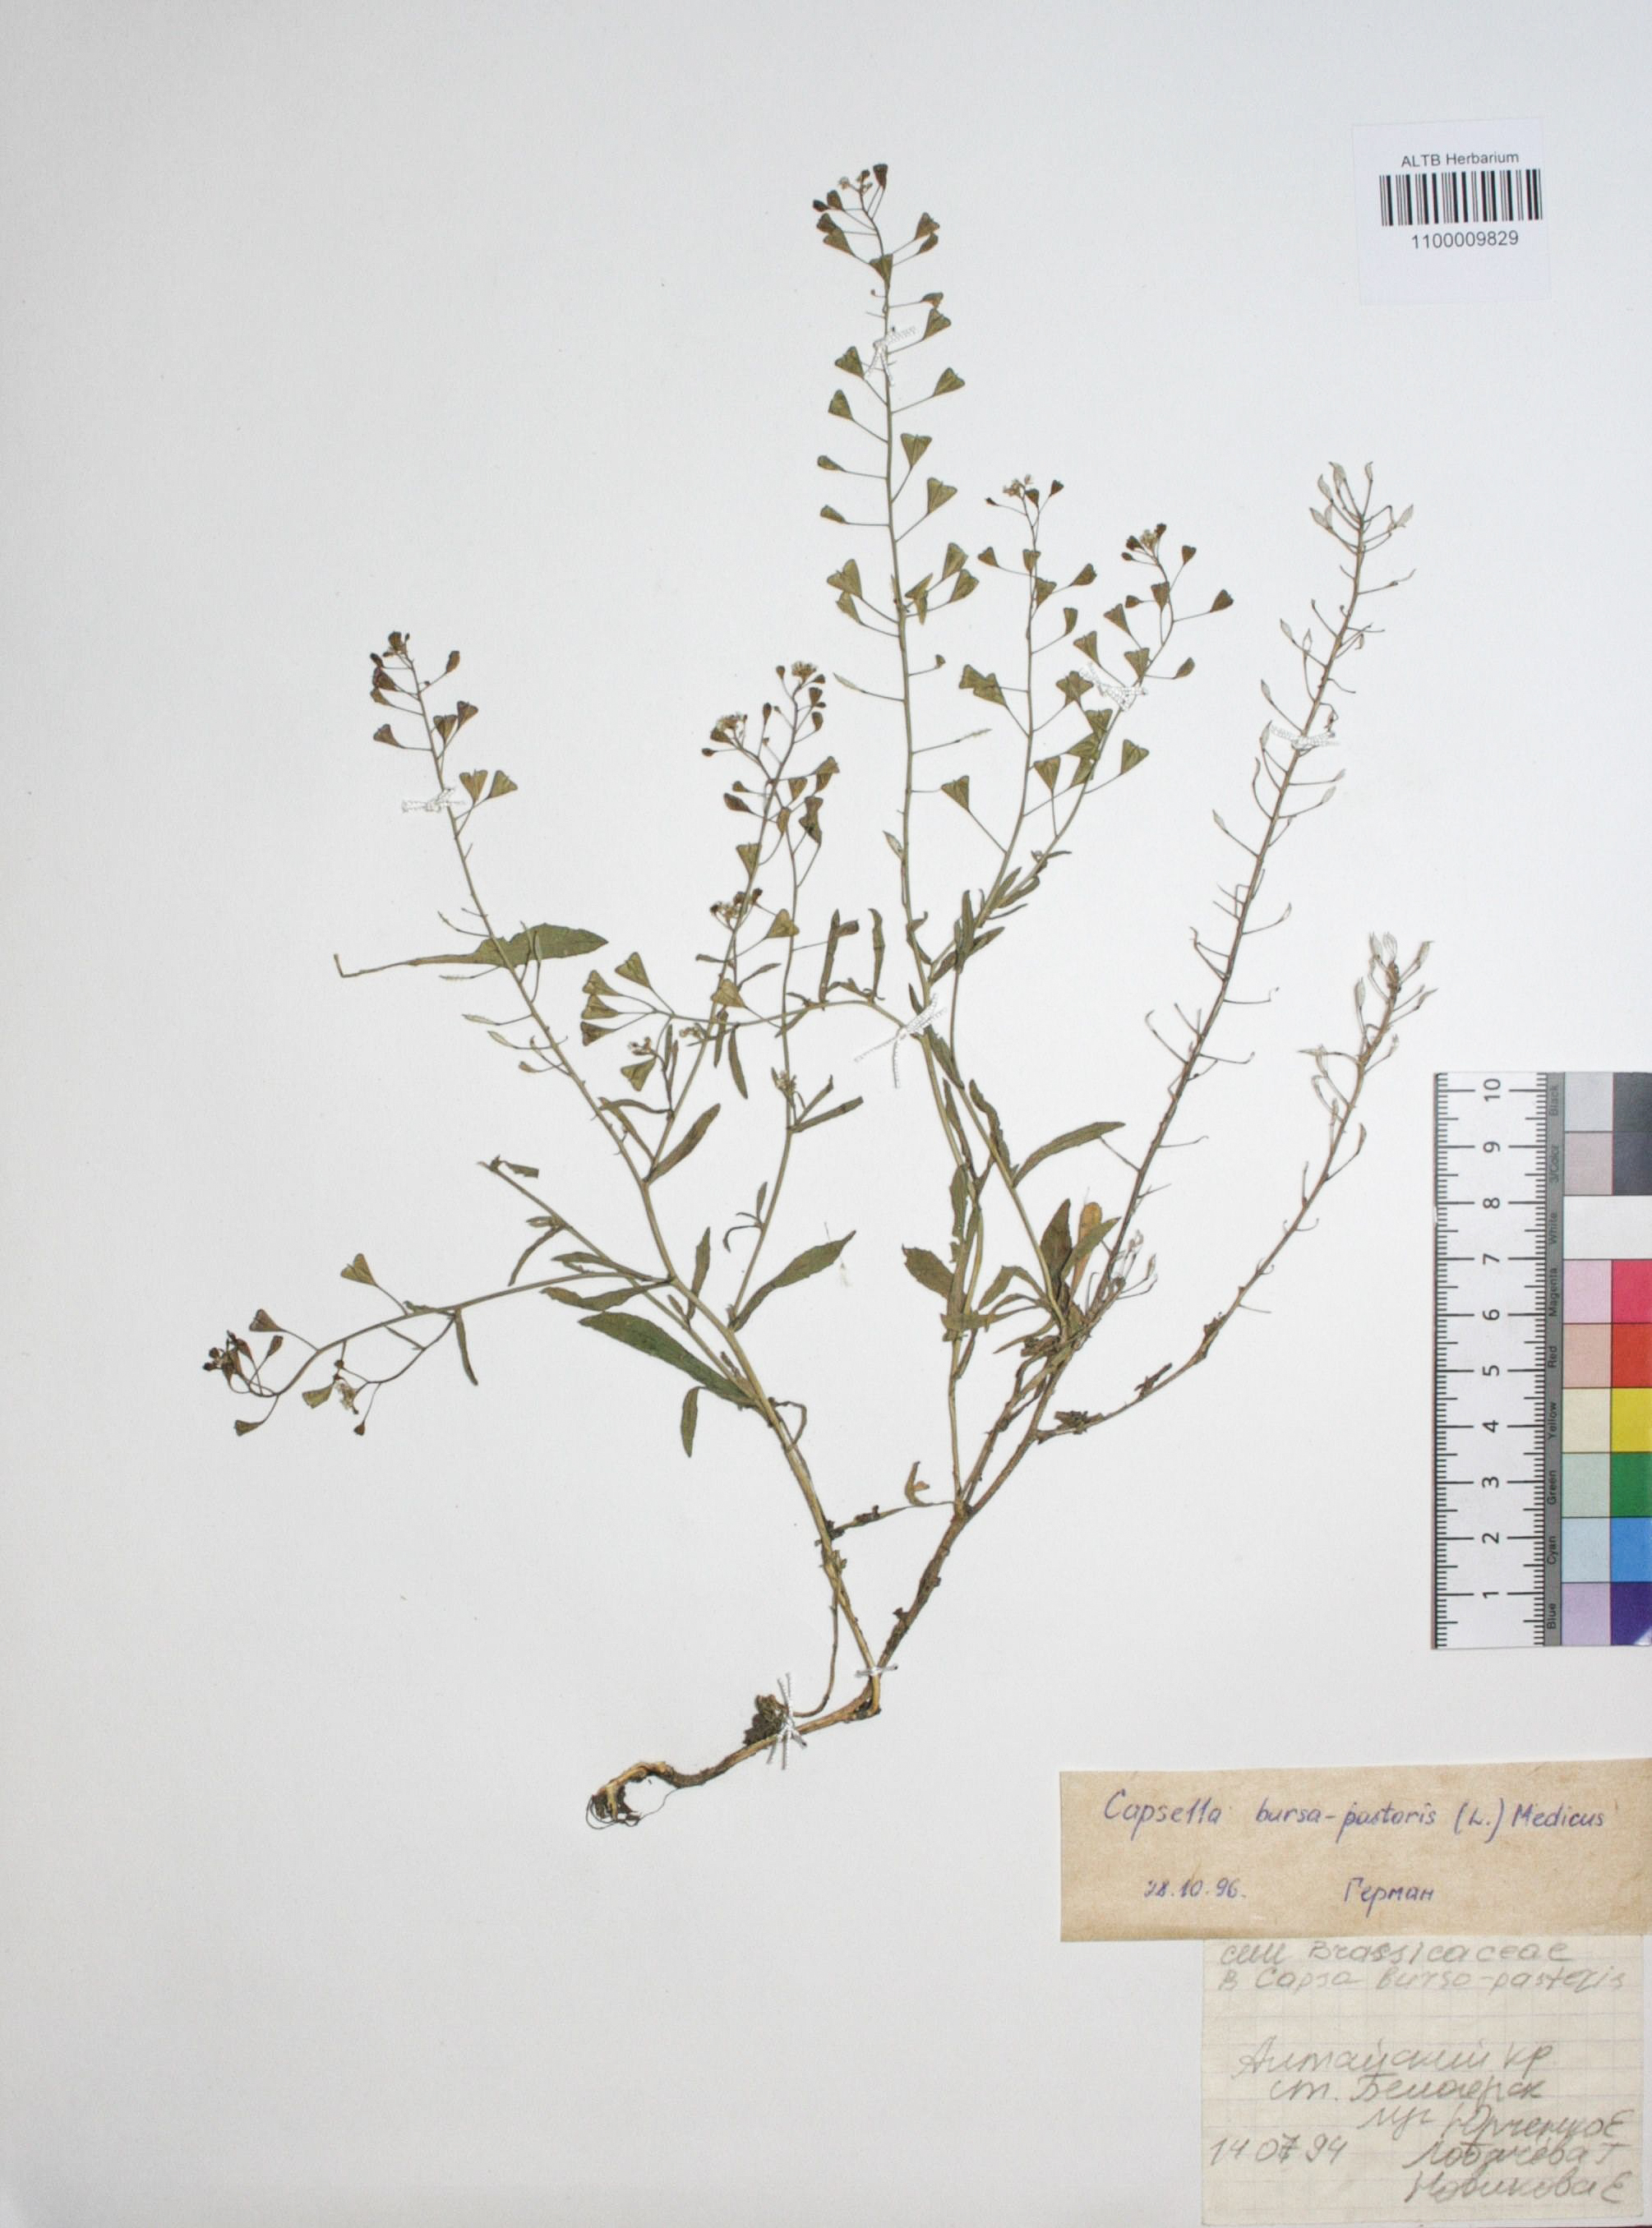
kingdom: Plantae
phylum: Tracheophyta
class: Magnoliopsida
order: Brassicales
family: Brassicaceae
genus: Capsella
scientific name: Capsella bursa-pastoris
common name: Shepherd's purse
